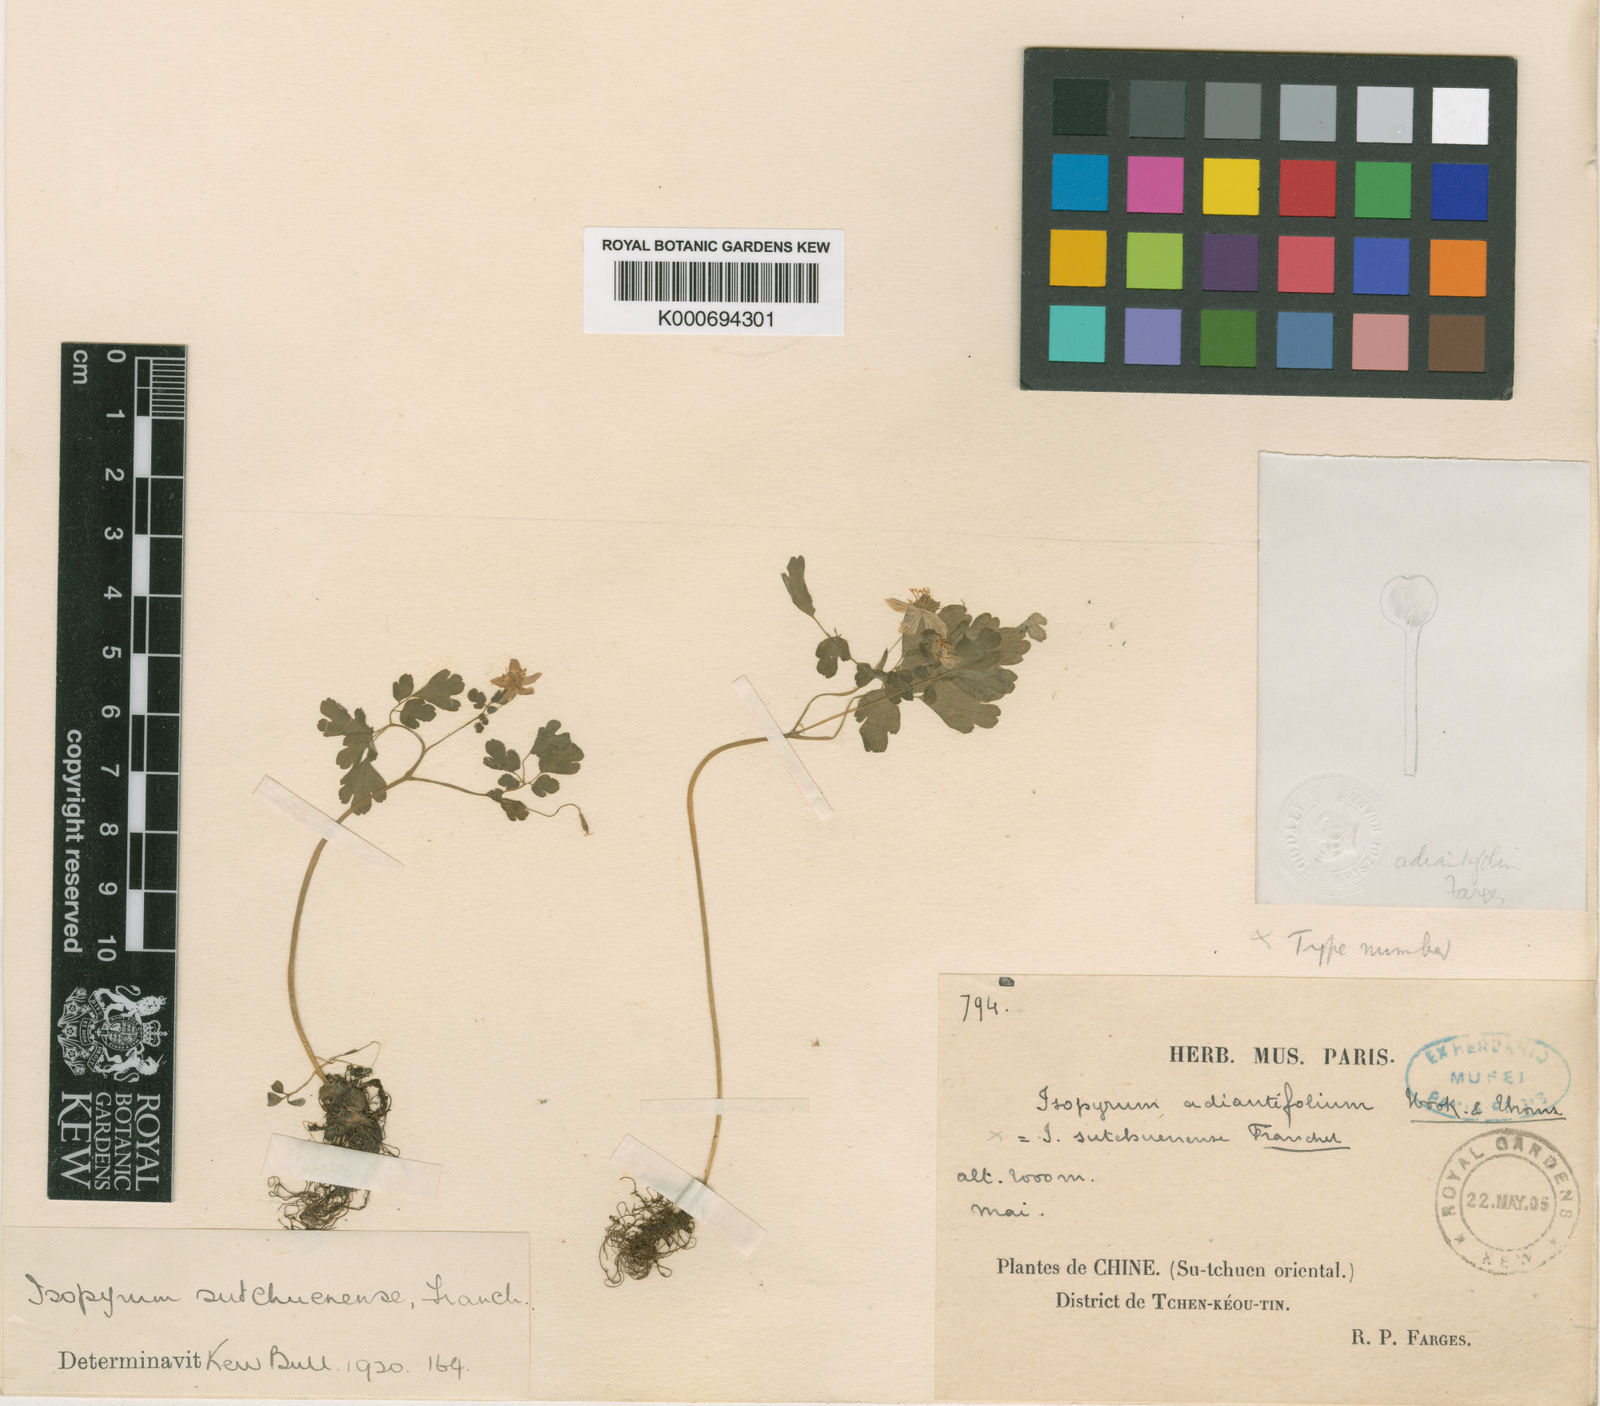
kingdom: Plantae
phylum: Tracheophyta
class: Magnoliopsida
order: Ranunculales
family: Ranunculaceae
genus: Dichocarpum
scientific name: Dichocarpum sutchuenense
